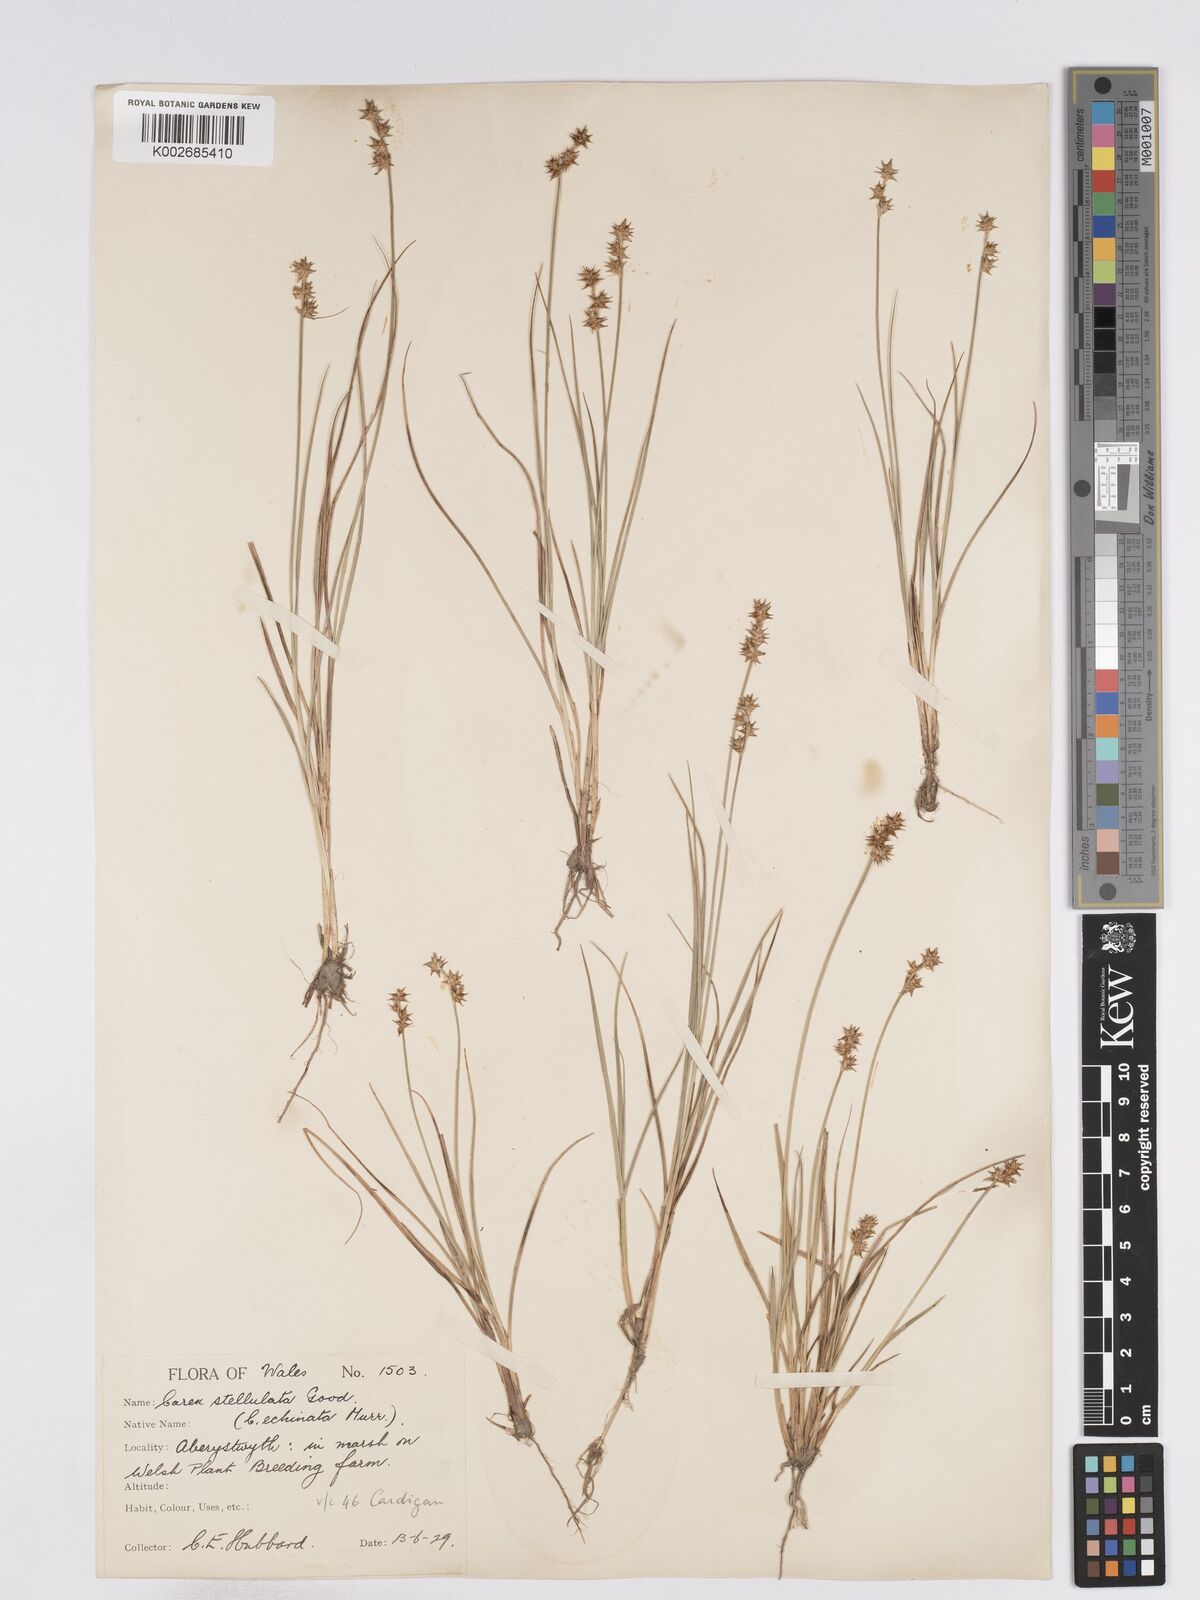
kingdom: Plantae
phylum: Tracheophyta
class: Liliopsida
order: Poales
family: Cyperaceae
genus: Carex
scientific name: Carex echinata
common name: Star sedge
